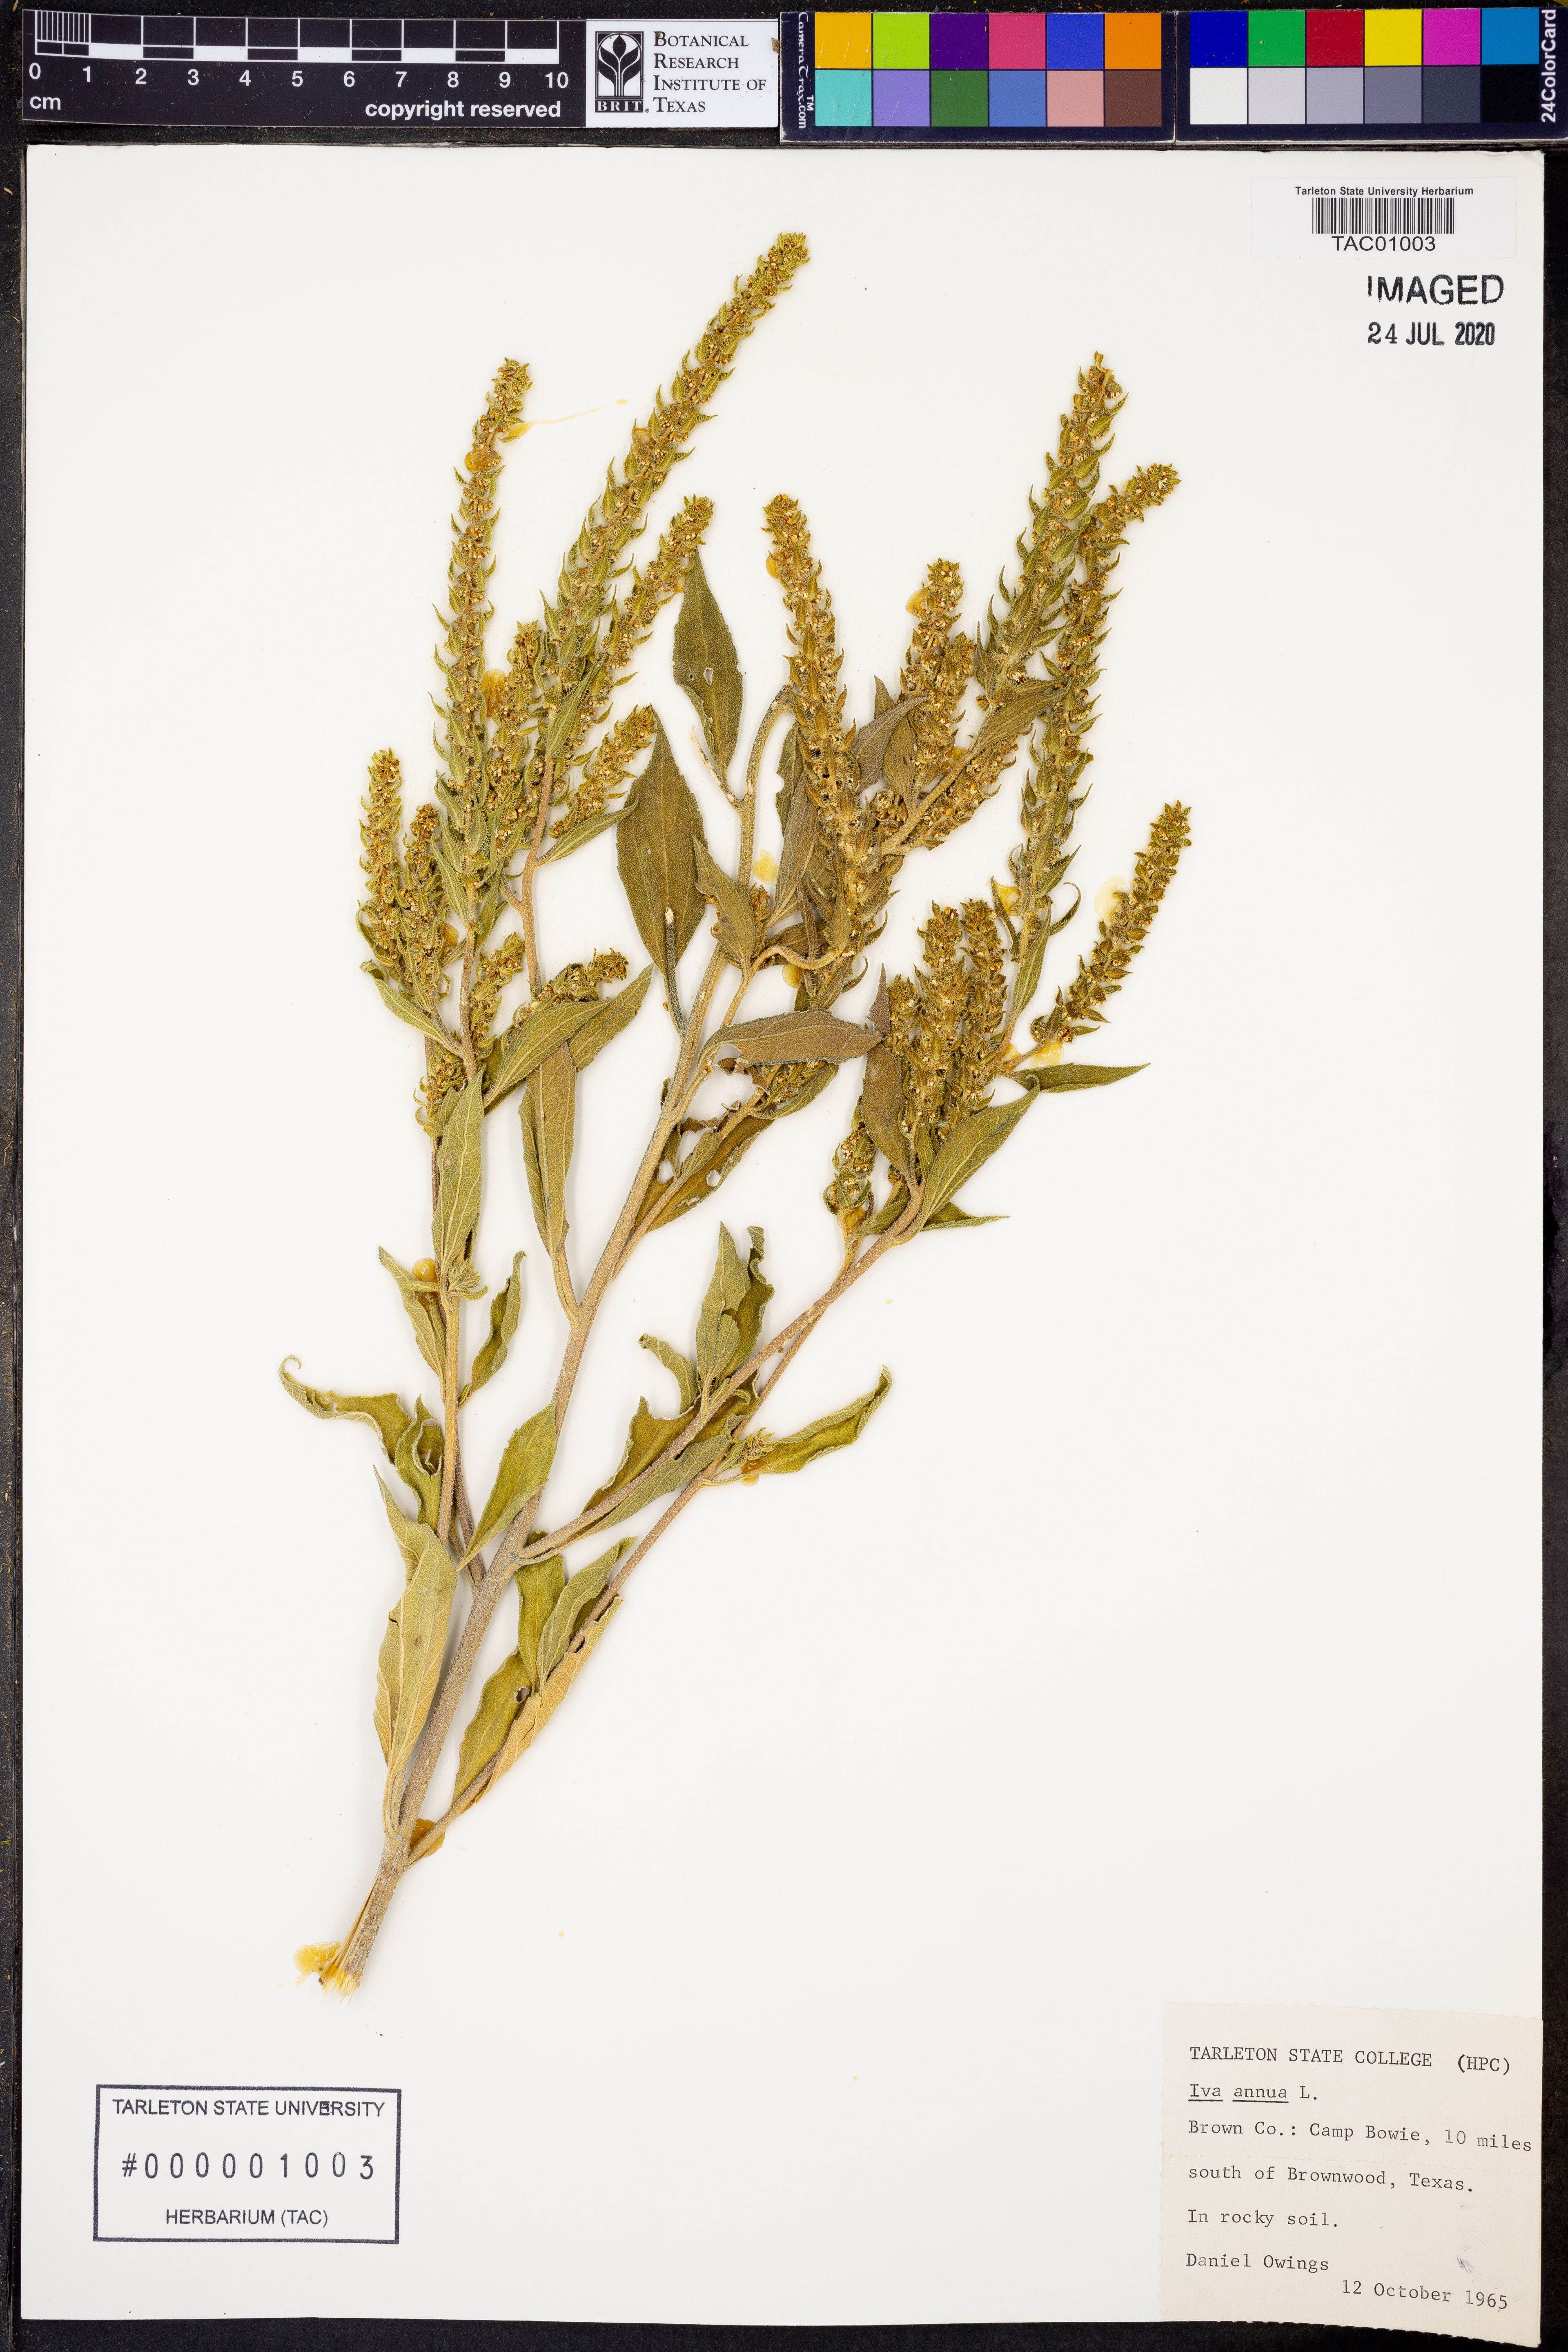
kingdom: Plantae
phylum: Tracheophyta
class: Magnoliopsida
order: Asterales
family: Asteraceae
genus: Iva
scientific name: Iva annua
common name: Marsh-elder
